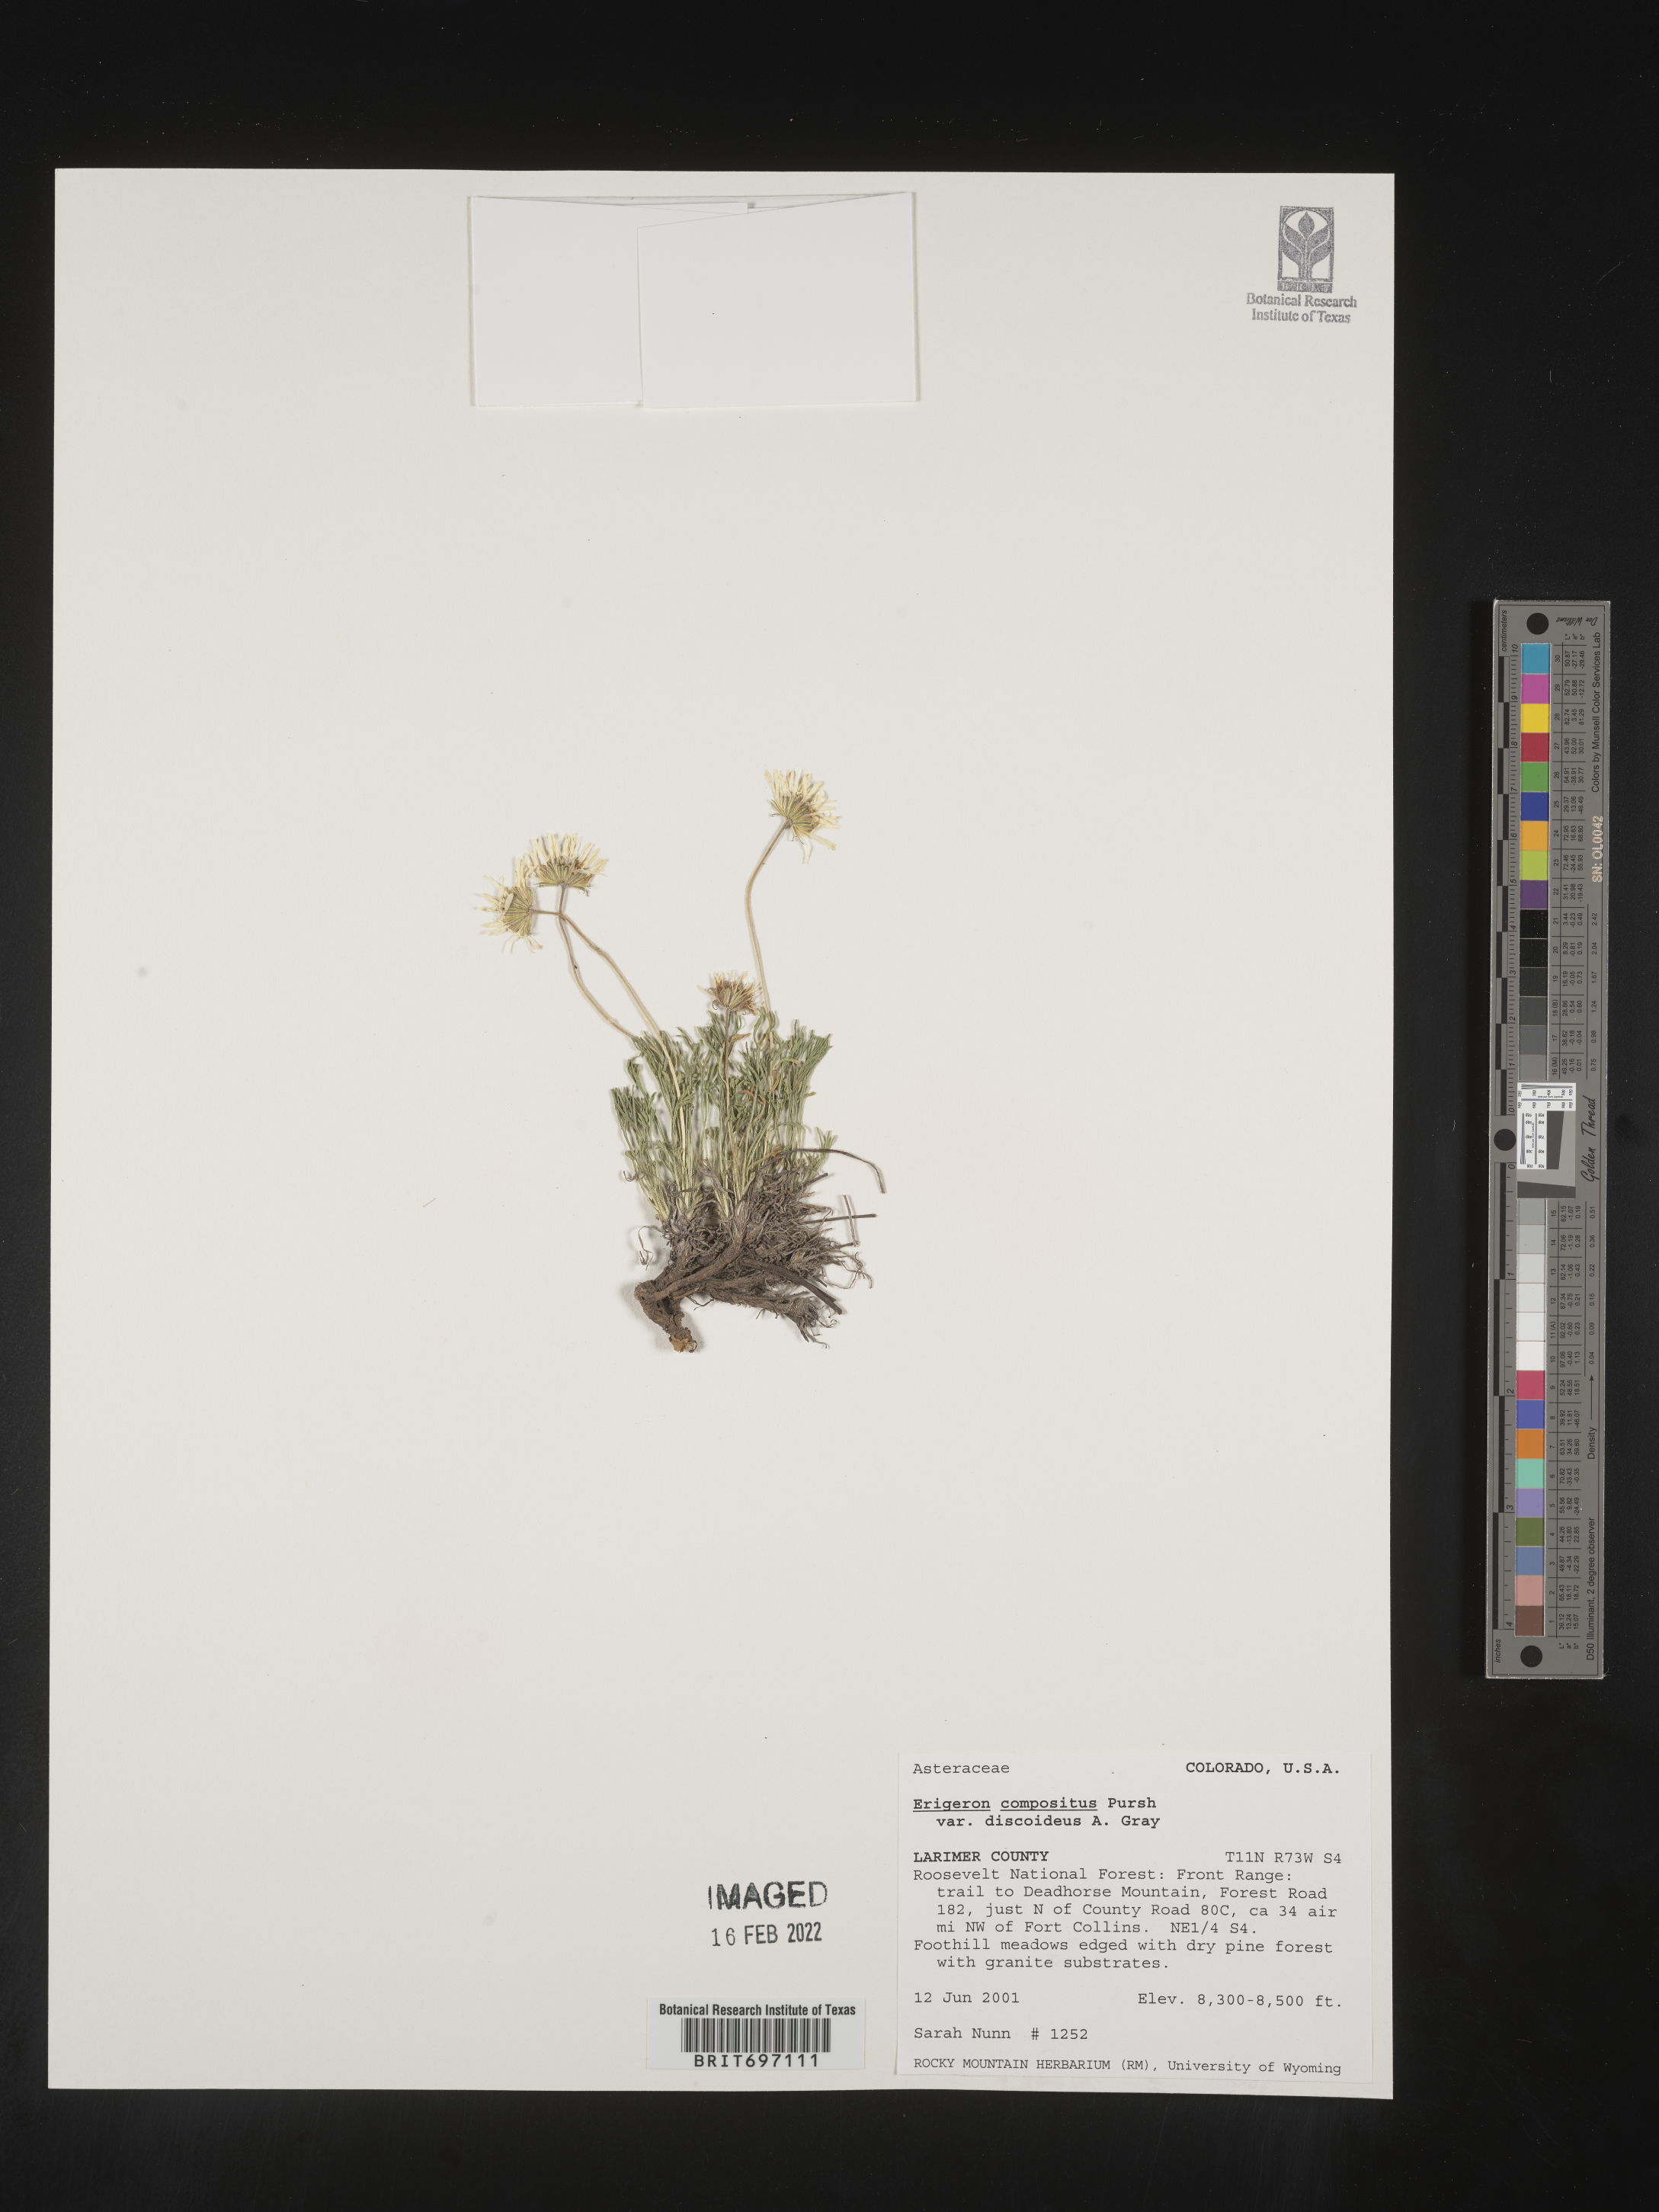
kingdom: Plantae
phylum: Tracheophyta
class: Magnoliopsida
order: Asterales
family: Asteraceae
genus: Erigeron
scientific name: Erigeron compositus
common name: Dwarf mountain fleabane
